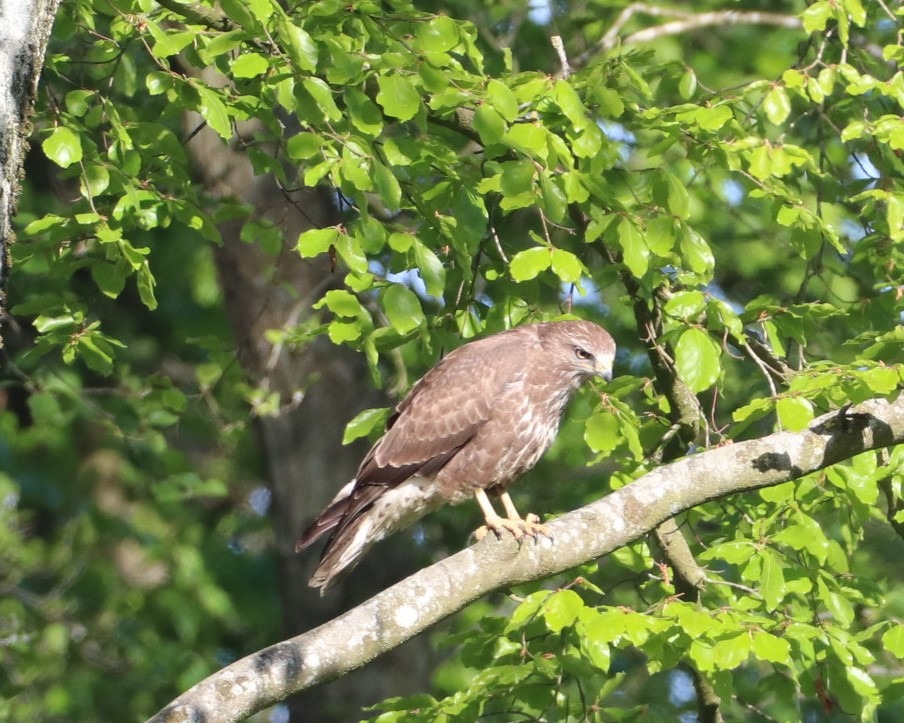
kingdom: Animalia
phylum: Chordata
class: Aves
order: Accipitriformes
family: Accipitridae
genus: Buteo
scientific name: Buteo buteo
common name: Musvåge
